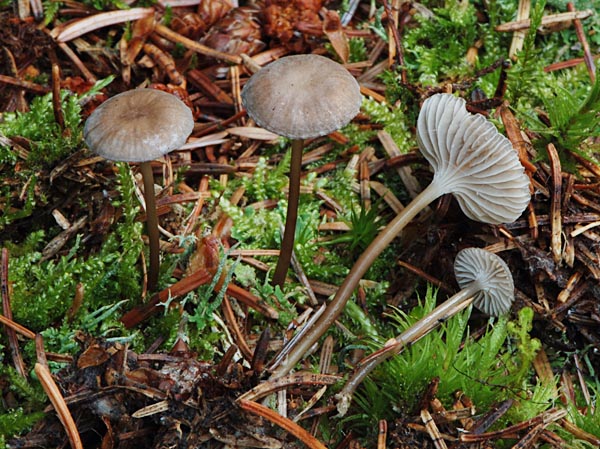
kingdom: Fungi
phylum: Basidiomycota
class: Agaricomycetes
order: Agaricales
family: Mycenaceae
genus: Mycena
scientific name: Mycena clavicularis
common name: fyrre-huesvamp
